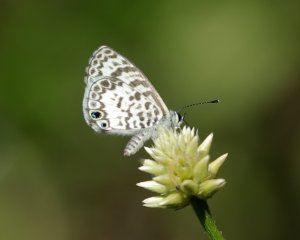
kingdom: Animalia
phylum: Arthropoda
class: Insecta
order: Lepidoptera
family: Lycaenidae
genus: Leptotes
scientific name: Leptotes cassius
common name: Cassius Blue
